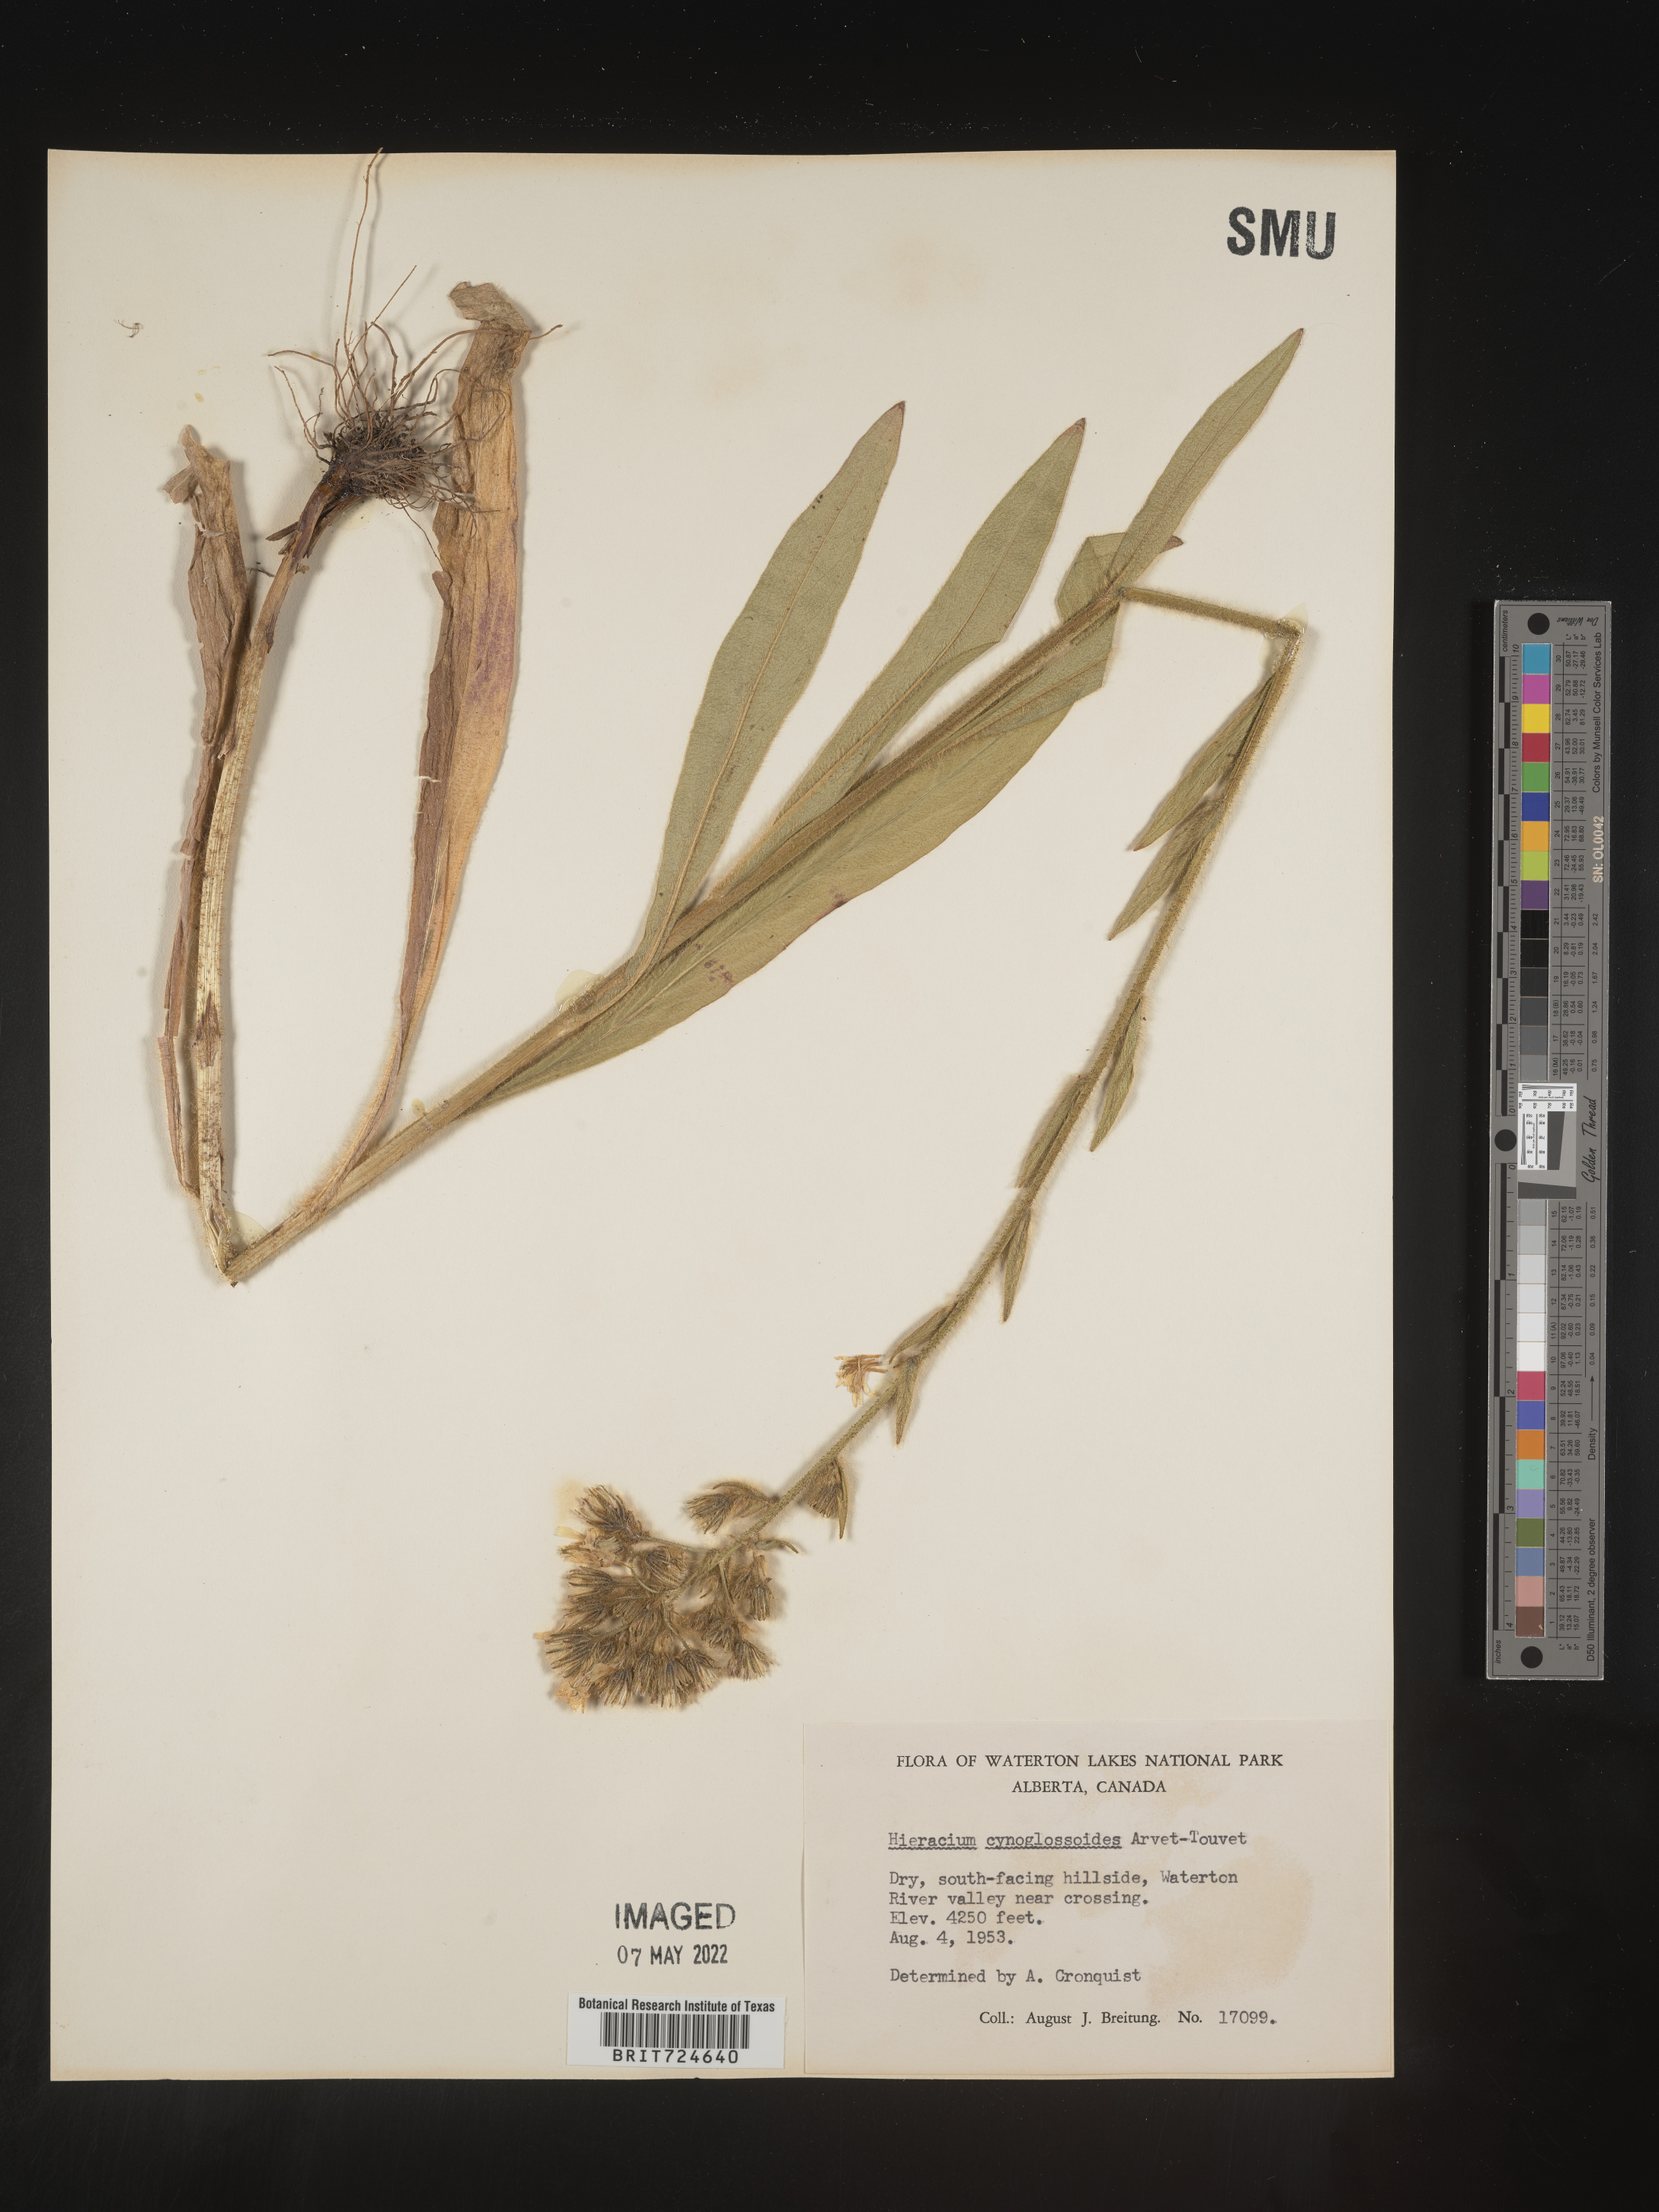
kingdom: Plantae
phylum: Tracheophyta
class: Magnoliopsida
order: Asterales
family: Asteraceae
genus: Hieracium
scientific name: Hieracium scouleri
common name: Hound's-tongue hawkweed
